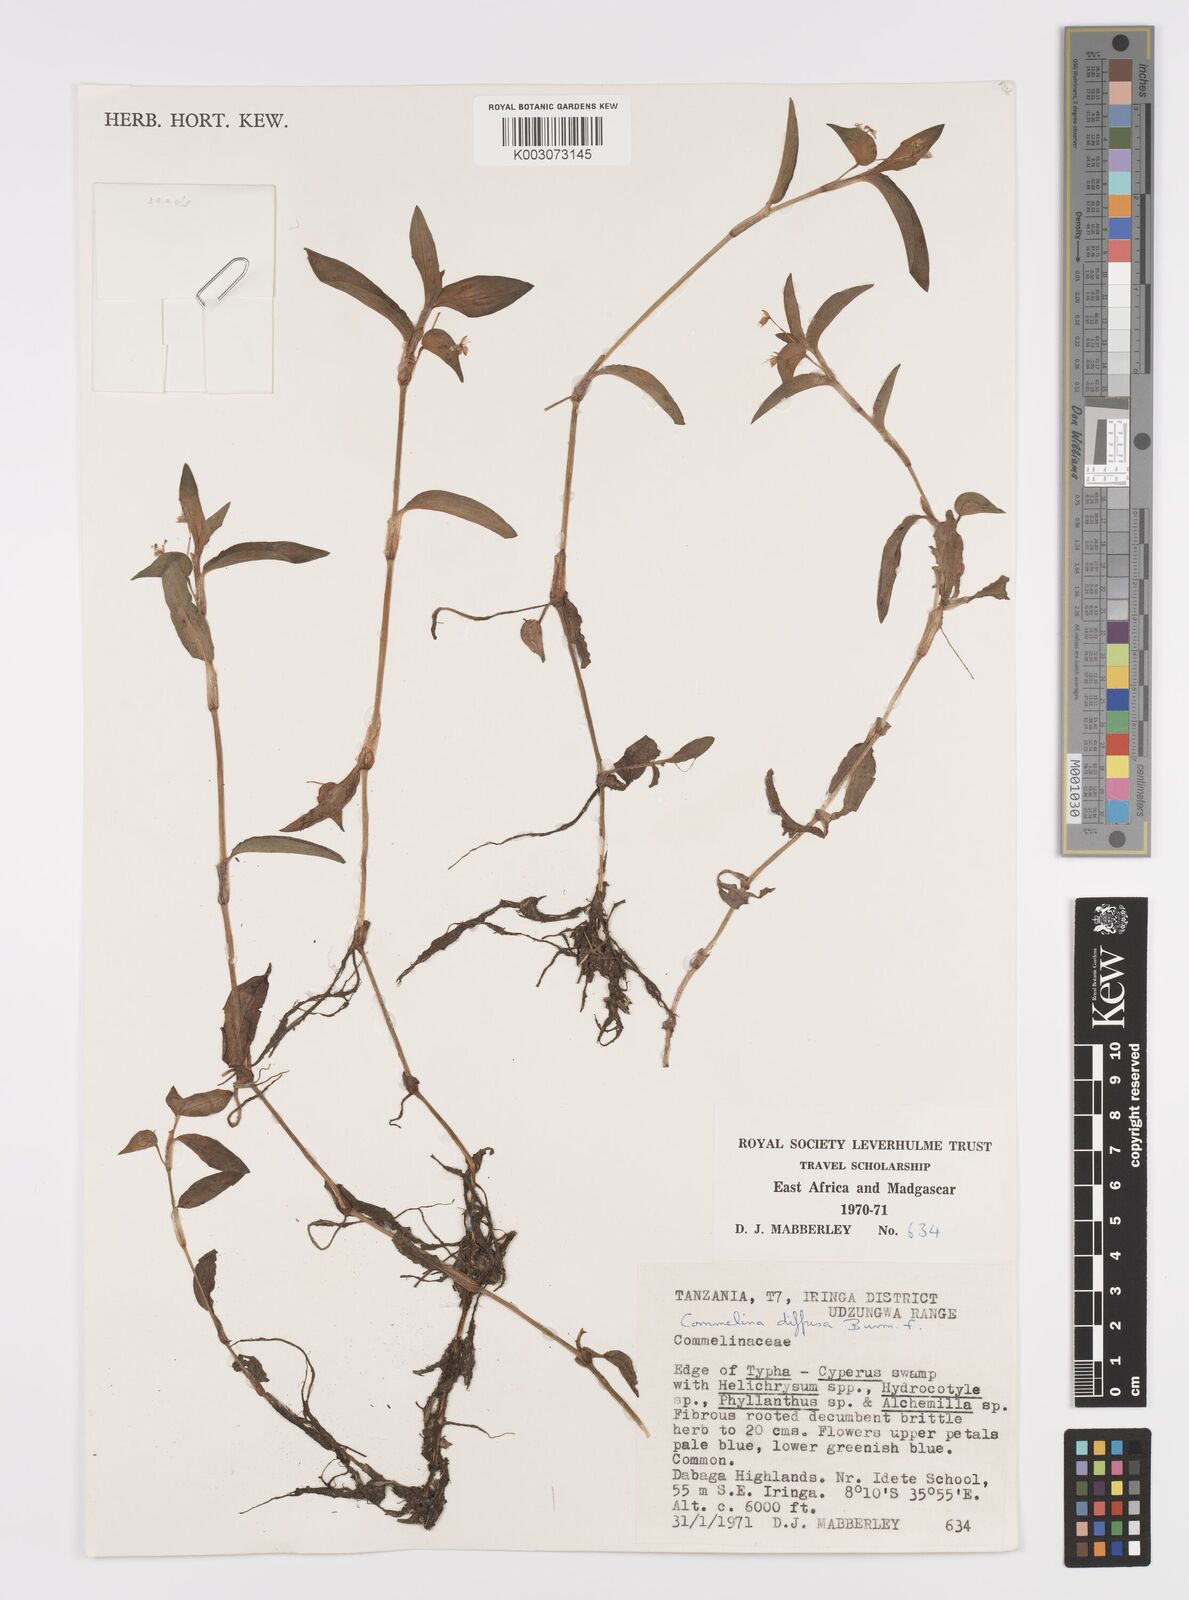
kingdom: Plantae
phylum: Tracheophyta
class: Liliopsida
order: Commelinales
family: Commelinaceae
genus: Commelina
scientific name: Commelina diffusa
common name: Climbing dayflower
